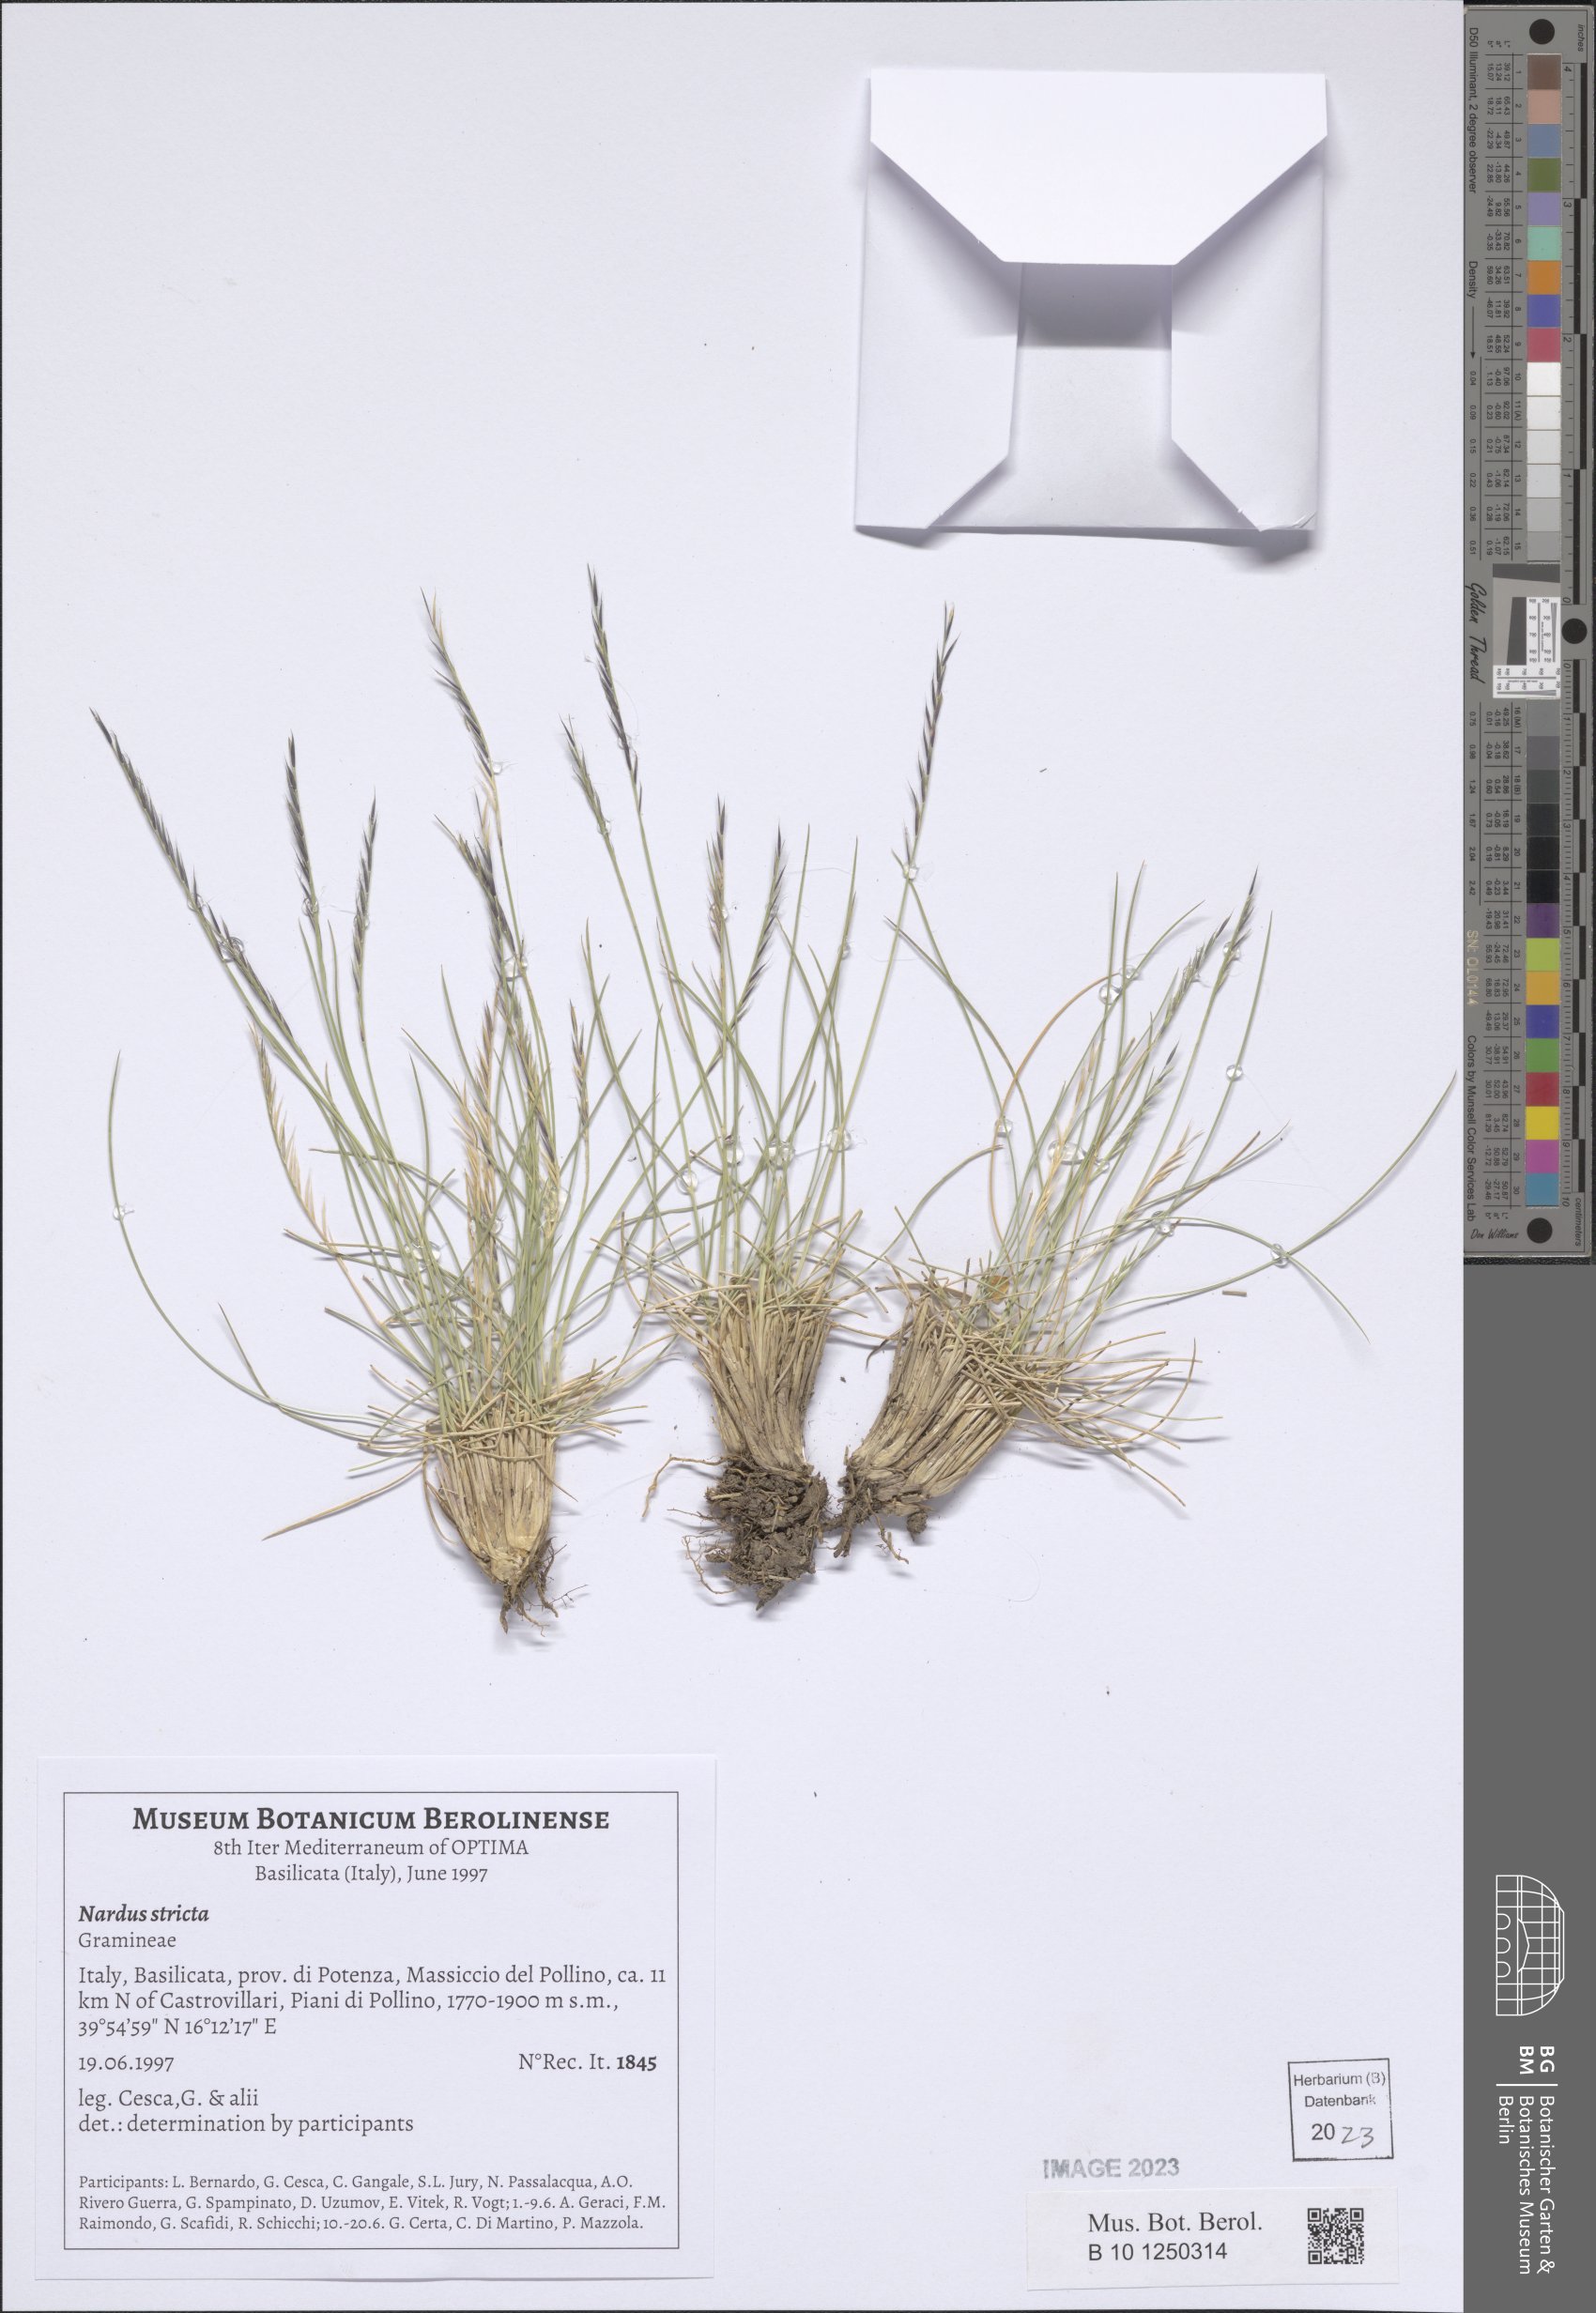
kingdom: Plantae
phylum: Tracheophyta
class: Liliopsida
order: Poales
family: Poaceae
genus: Nardus
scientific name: Nardus stricta
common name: Mat-grass
